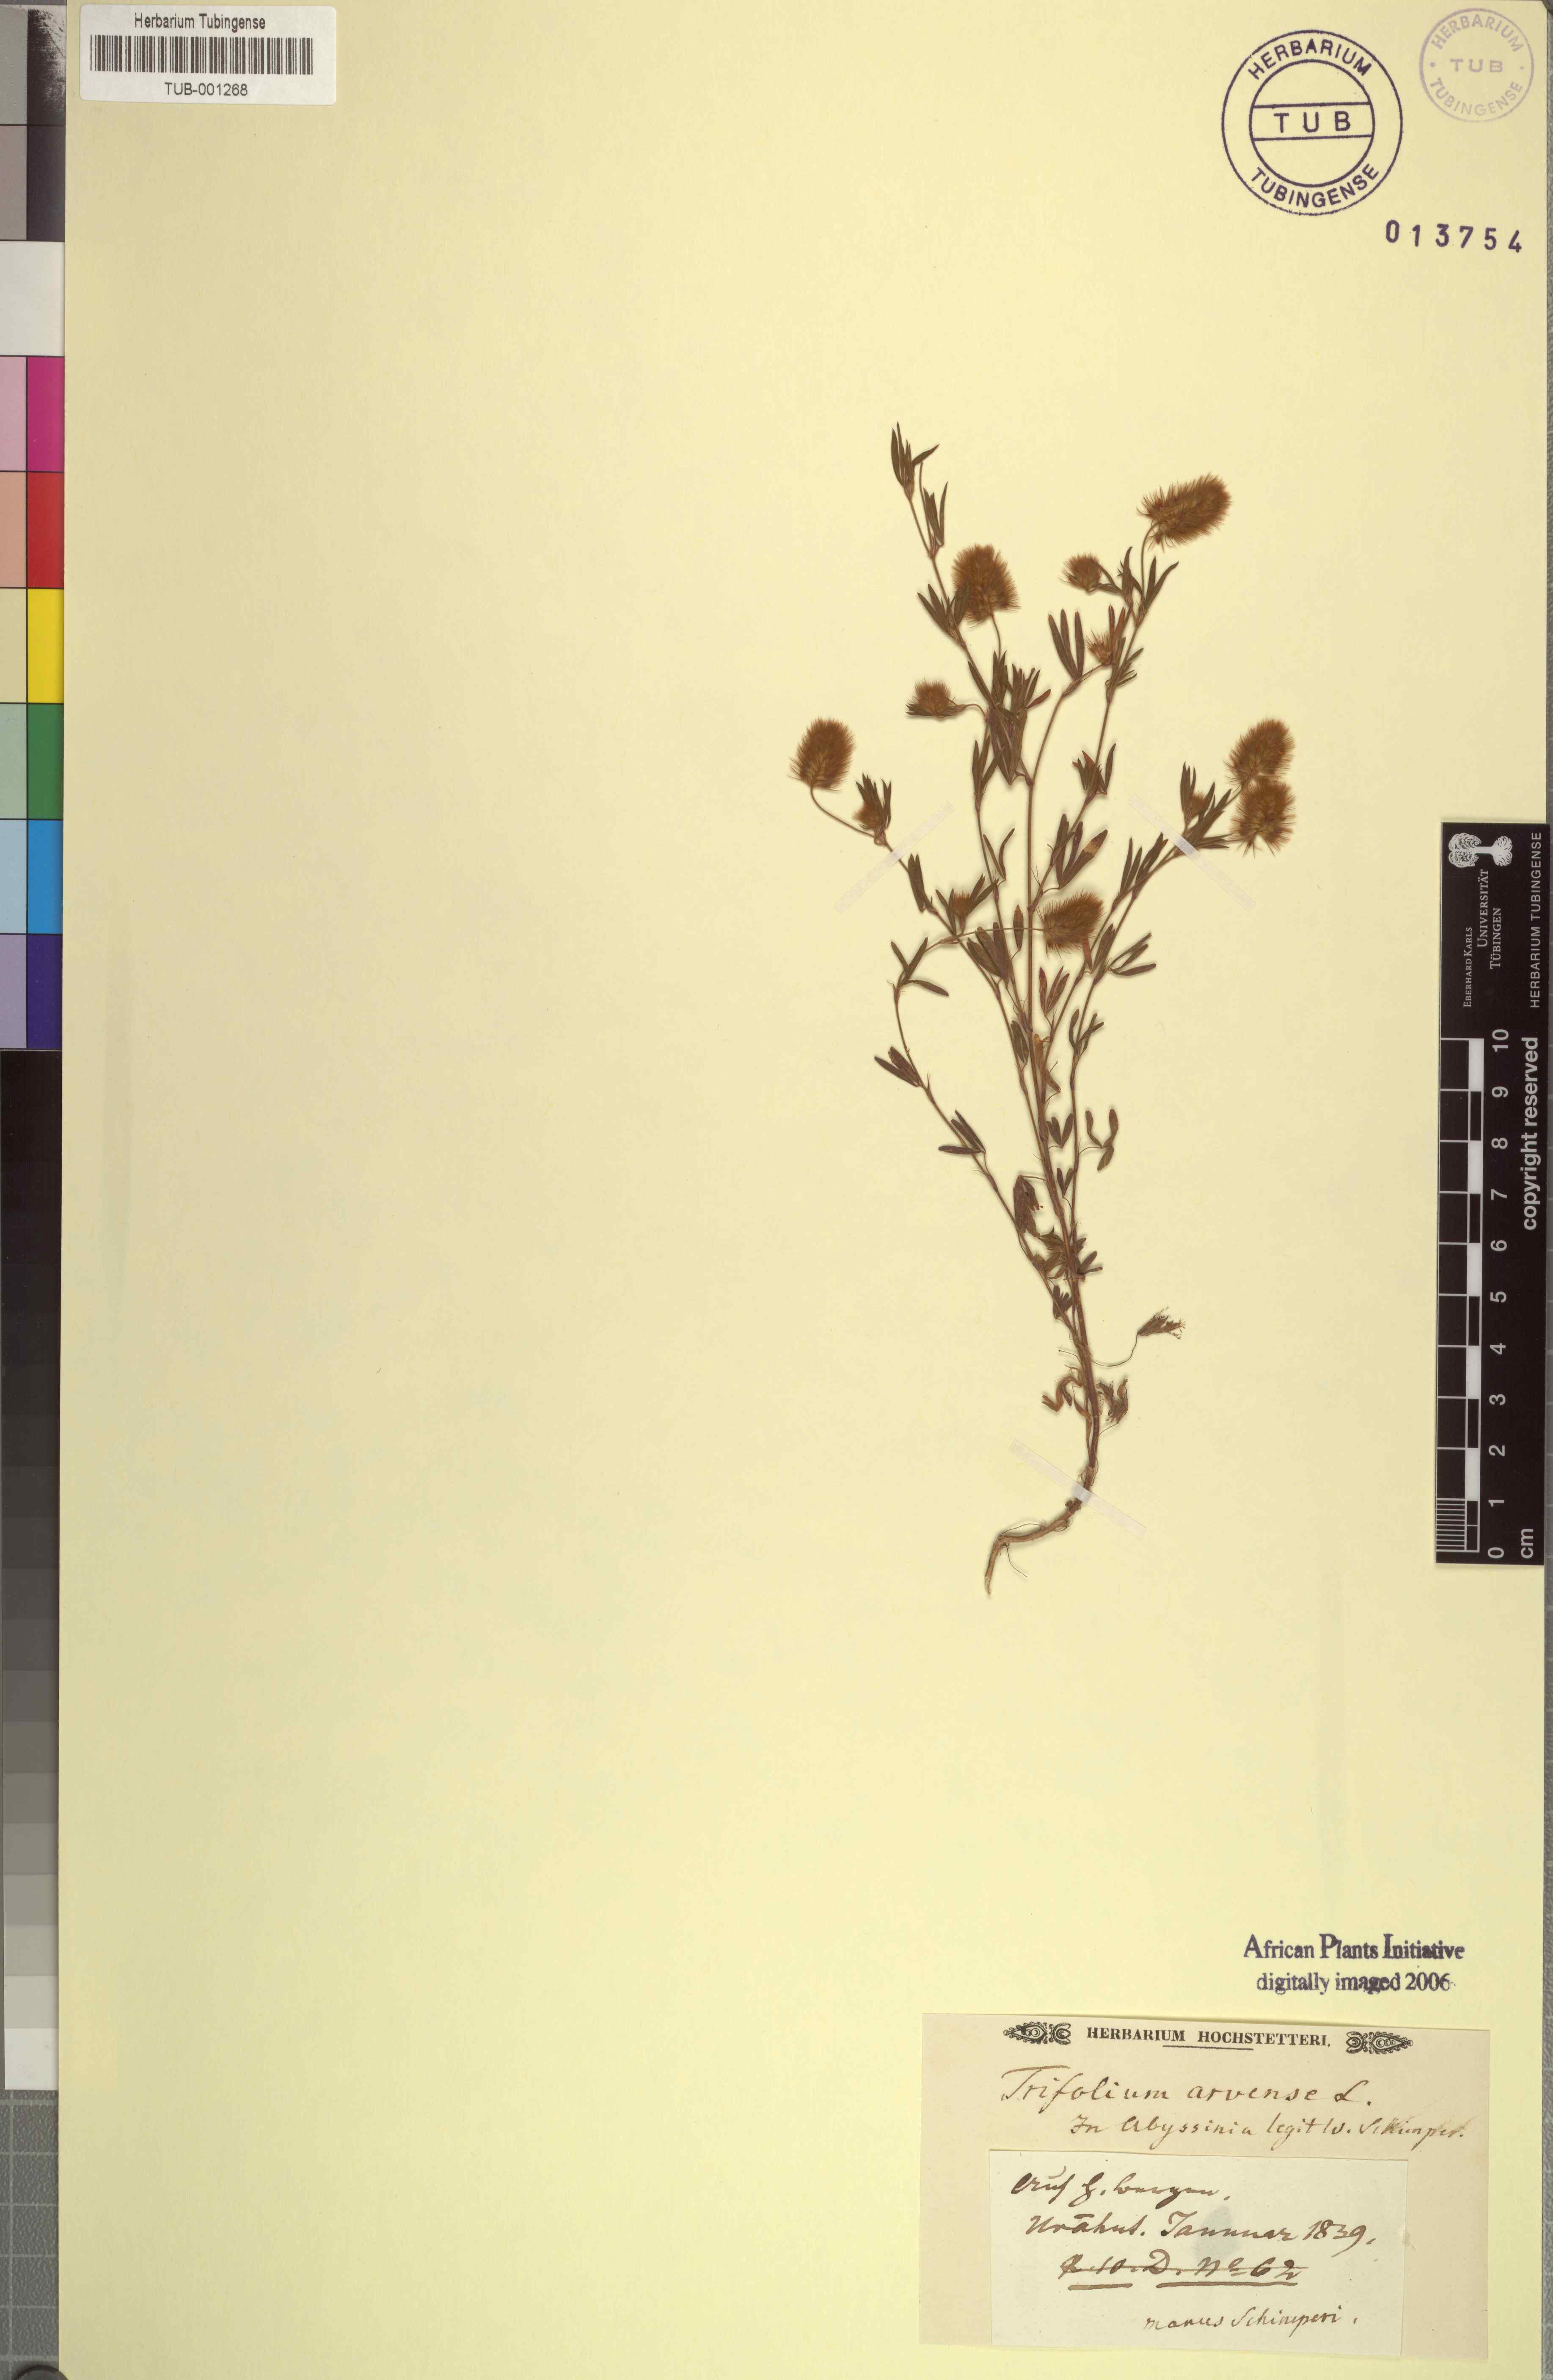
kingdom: Plantae
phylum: Tracheophyta
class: Magnoliopsida
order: Fabales
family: Fabaceae
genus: Trifolium
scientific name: Trifolium arvense
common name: Hare's-foot clover
